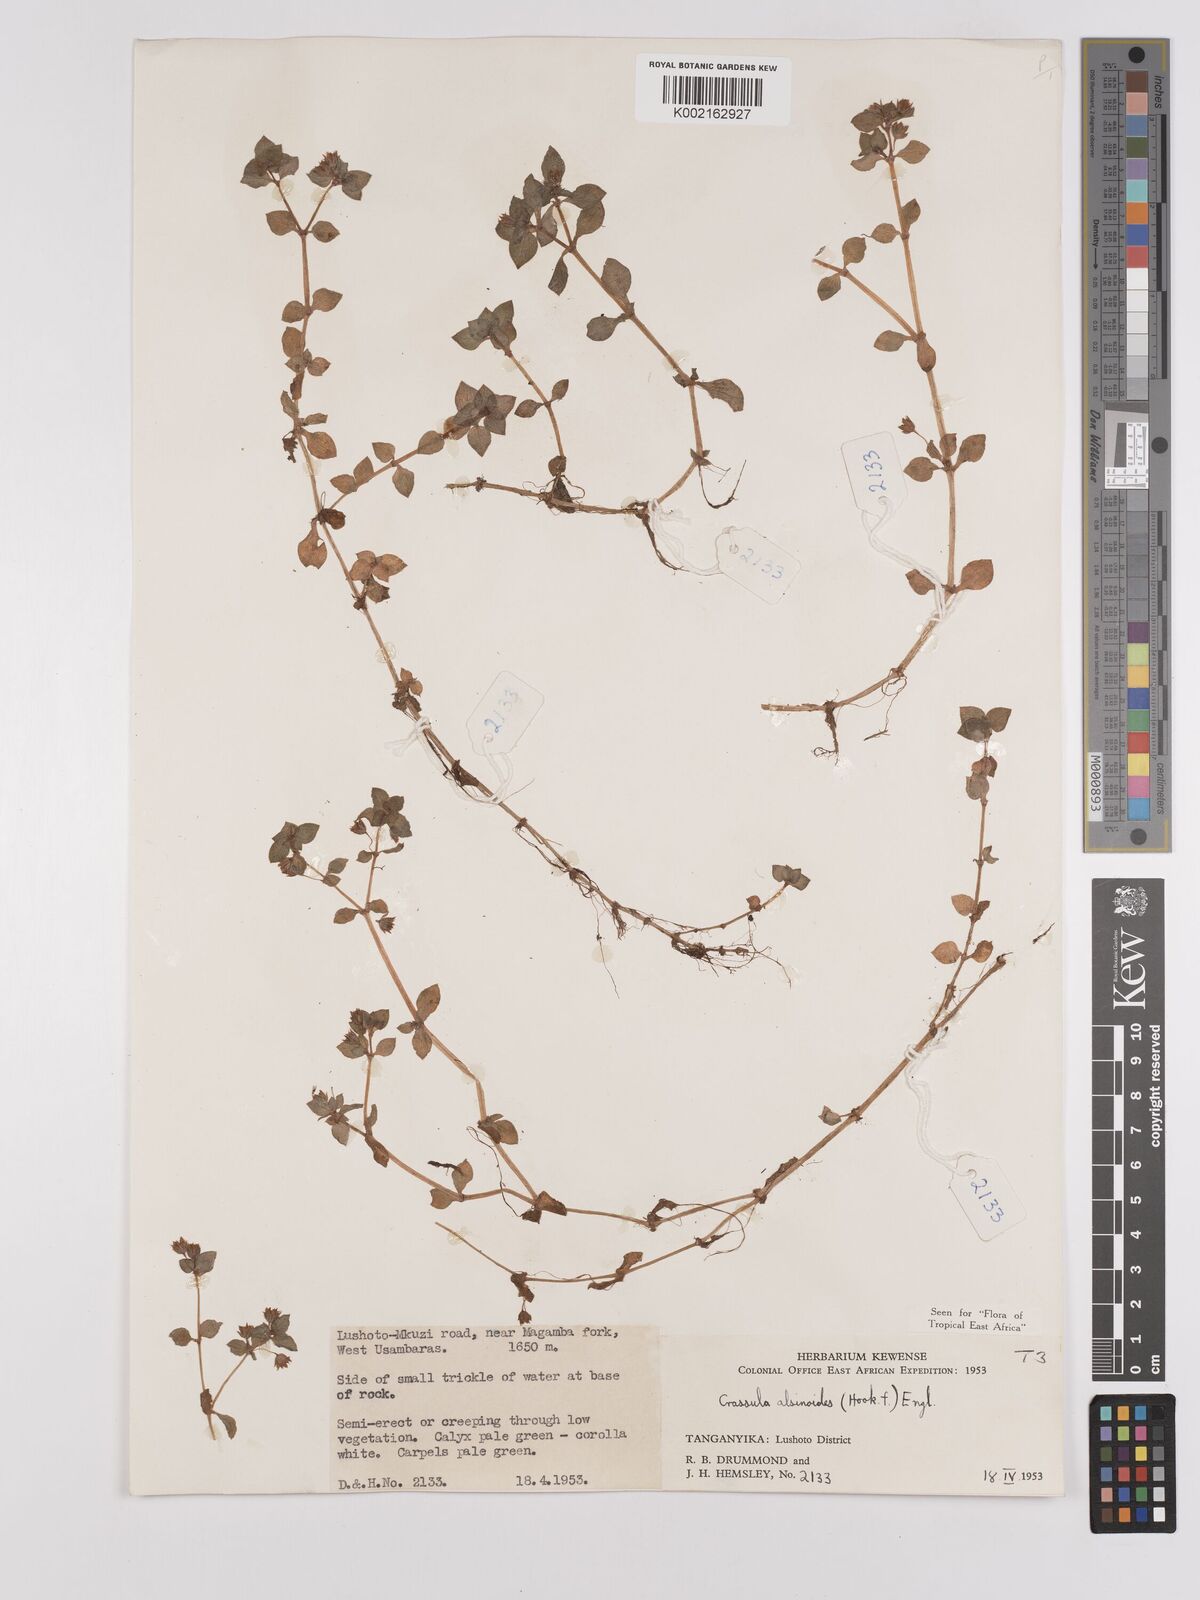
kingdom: Plantae
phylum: Tracheophyta
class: Magnoliopsida
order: Saxifragales
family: Crassulaceae
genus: Crassula
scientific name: Crassula alsinoides
